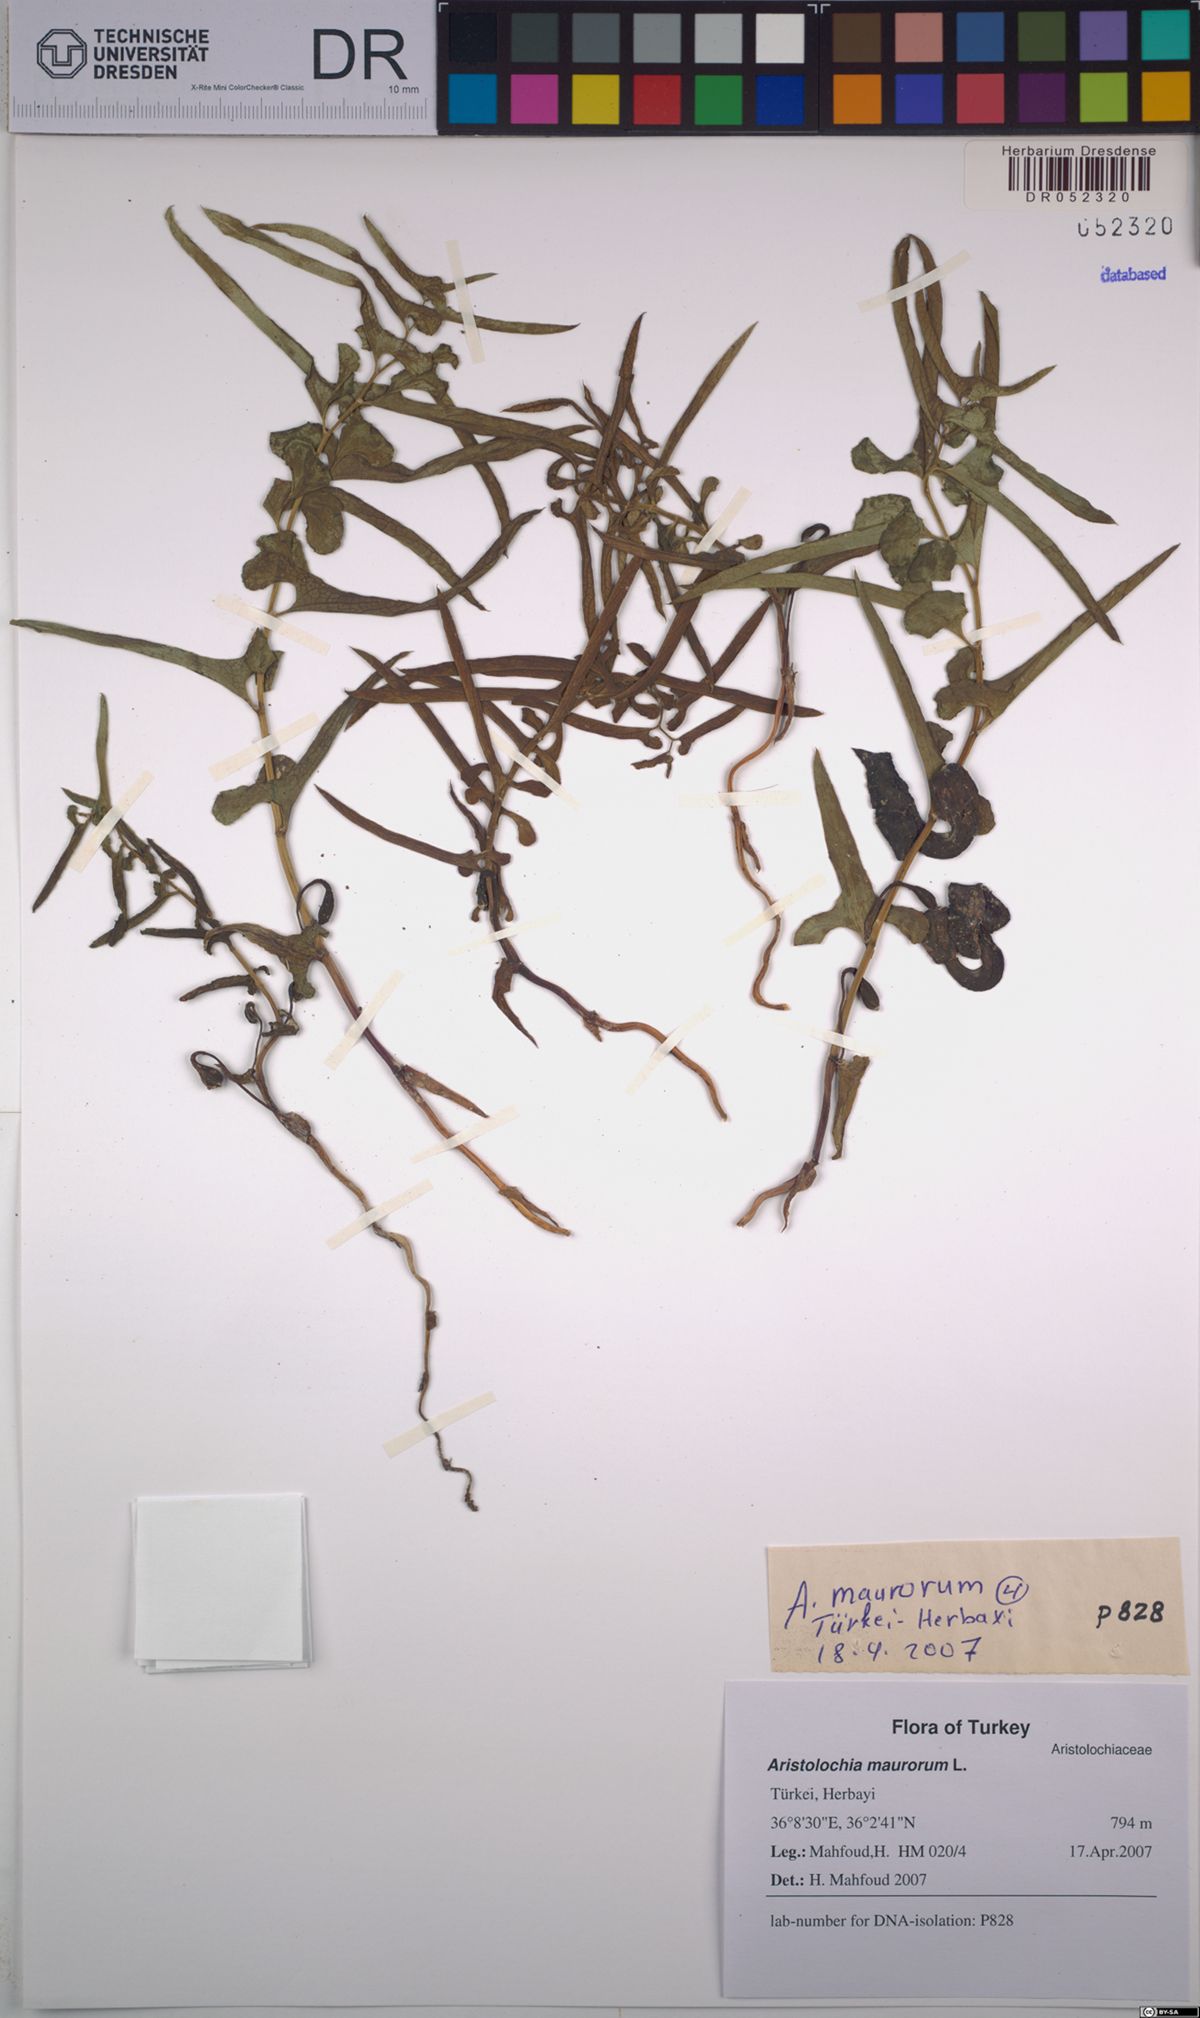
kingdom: Plantae
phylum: Tracheophyta
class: Magnoliopsida
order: Piperales
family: Aristolochiaceae
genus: Aristolochia
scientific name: Aristolochia maurorum
